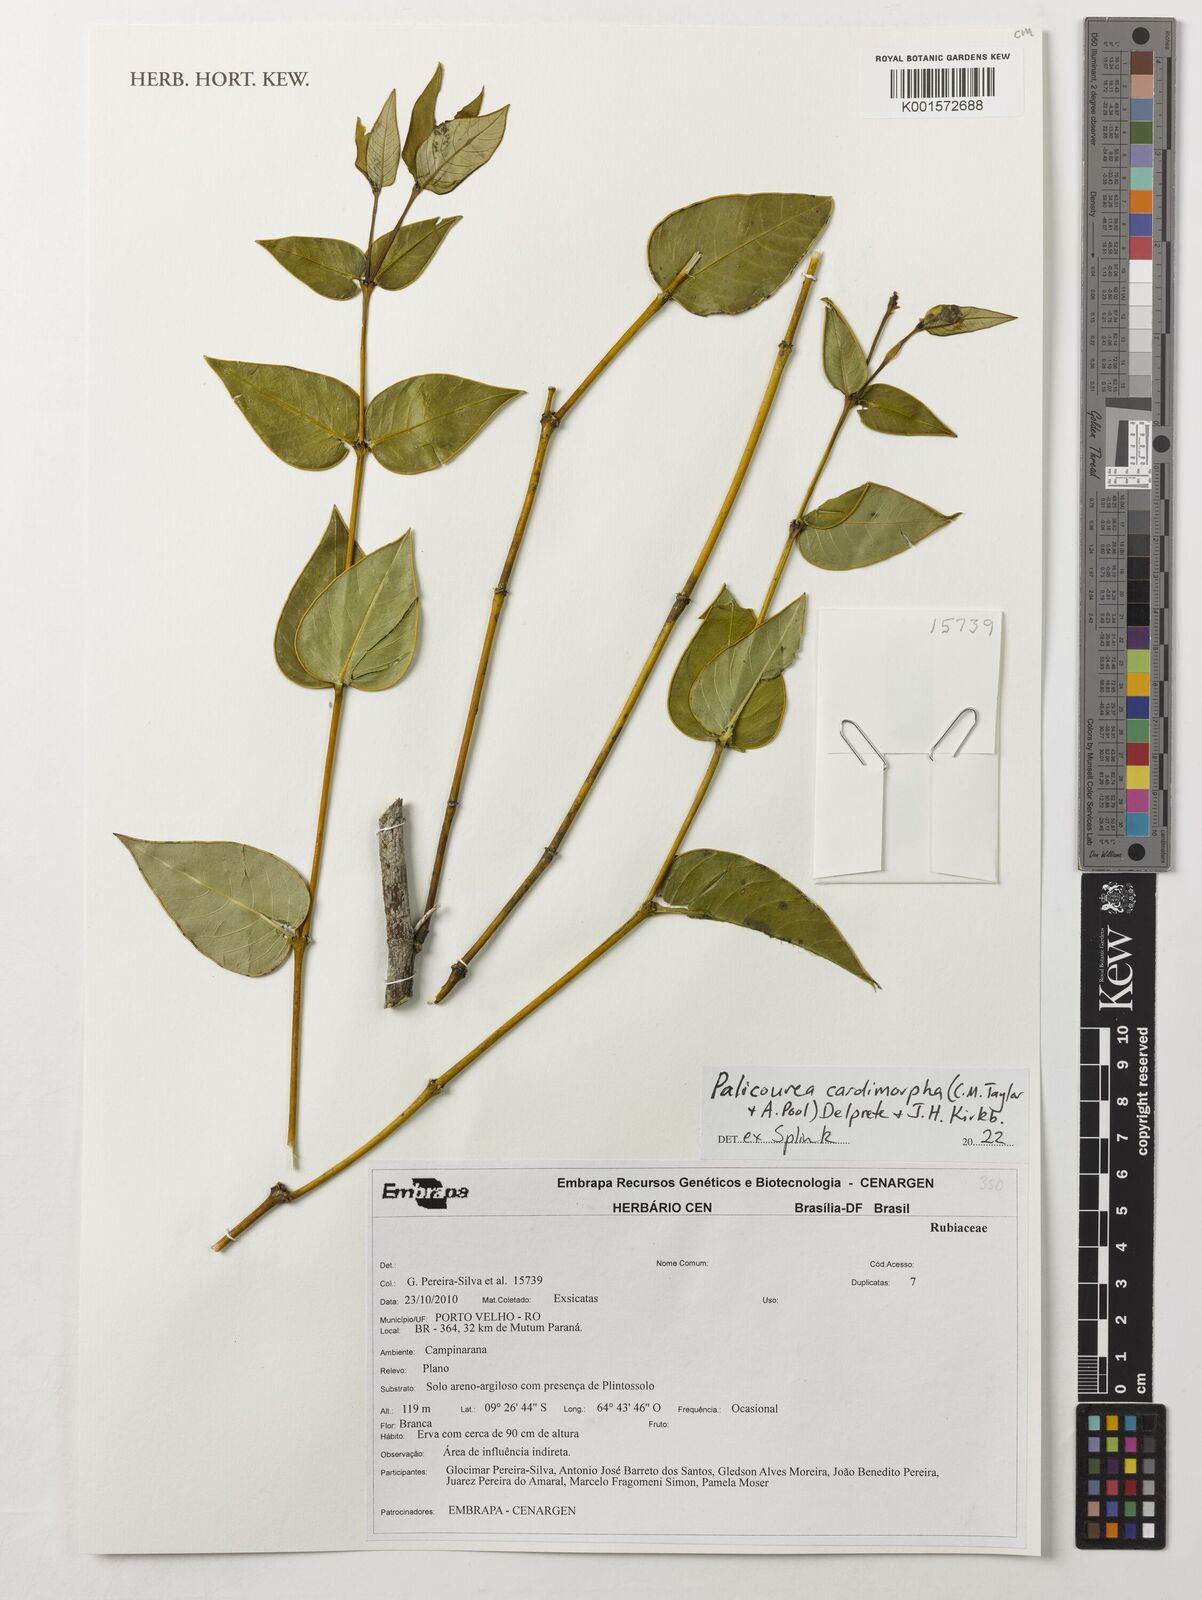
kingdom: Plantae
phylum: Tracheophyta
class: Magnoliopsida
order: Gentianales
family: Rubiaceae
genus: Palicourea
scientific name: Palicourea cardiomorpha
